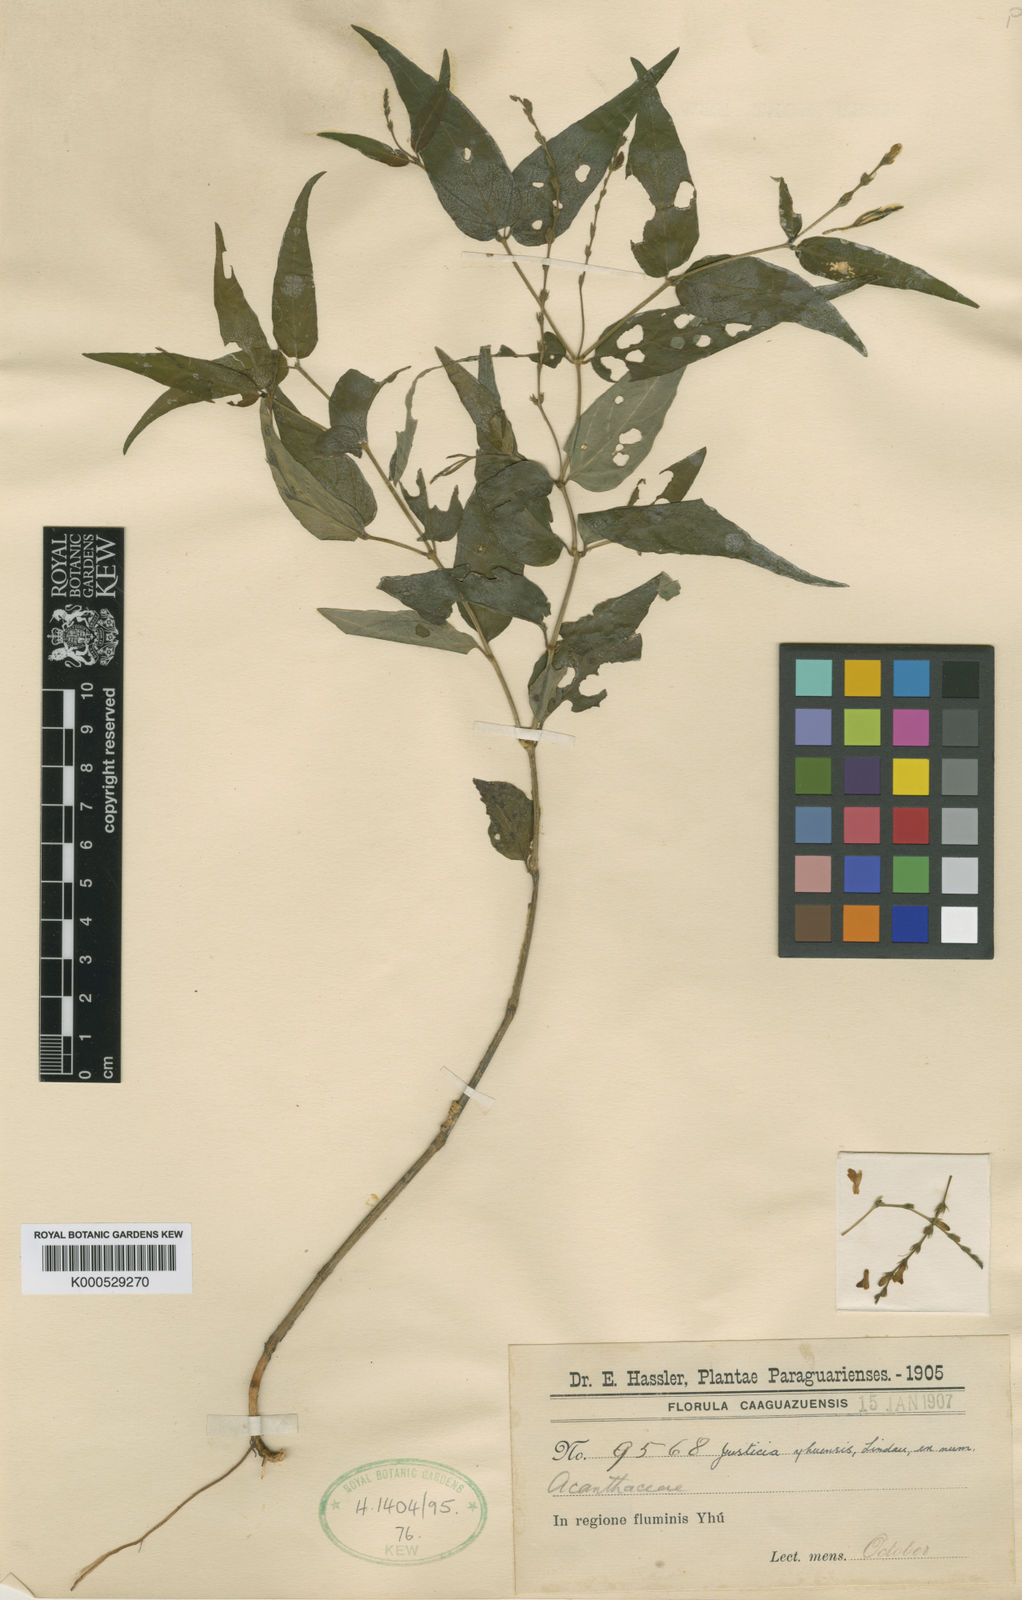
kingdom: Plantae
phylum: Tracheophyta
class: Magnoliopsida
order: Lamiales
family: Acanthaceae
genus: Justicia
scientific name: Justicia yhuensis
